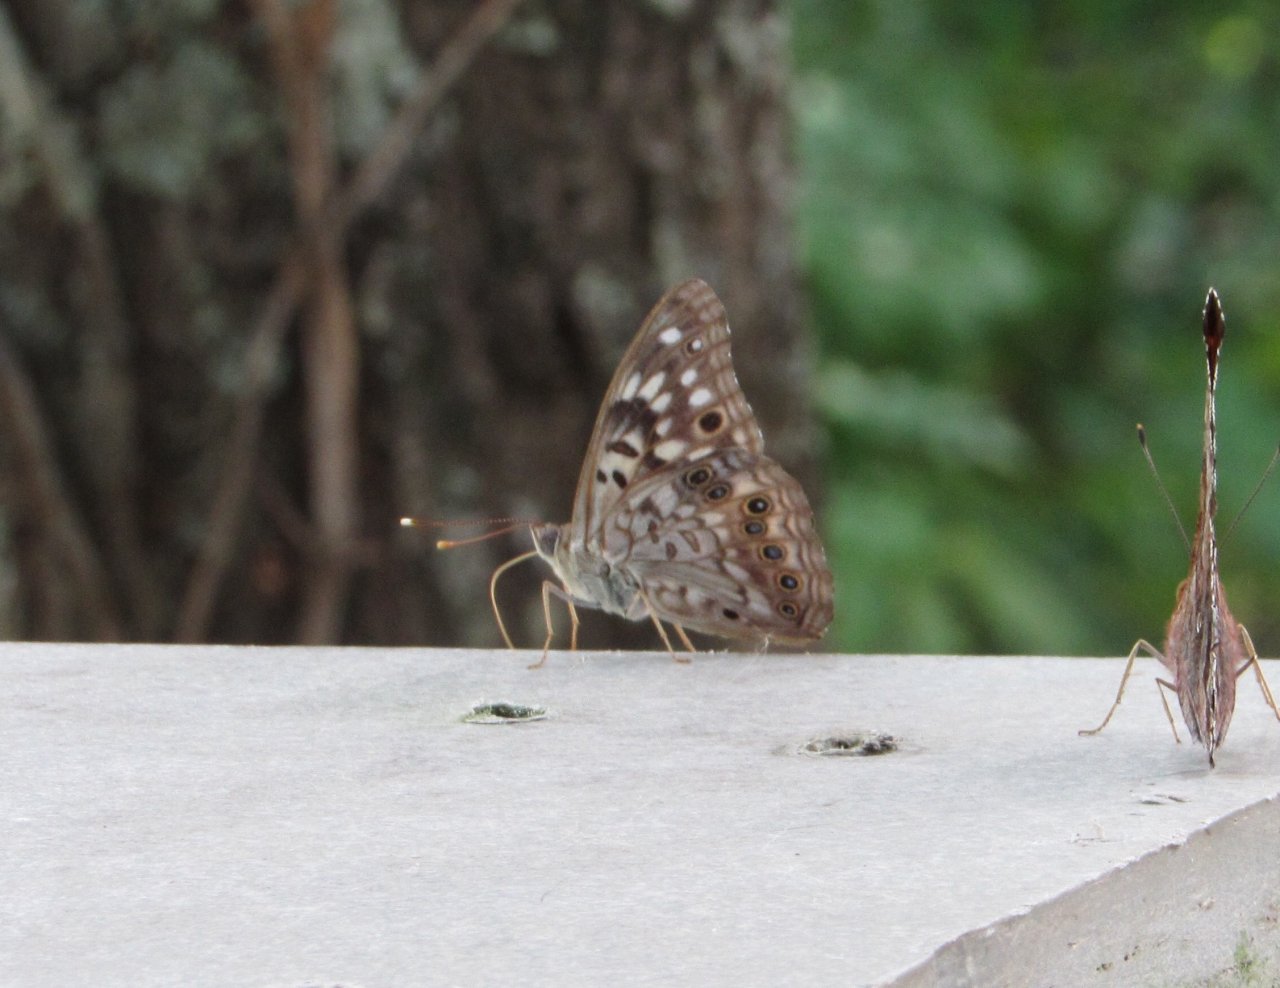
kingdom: Animalia
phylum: Arthropoda
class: Insecta
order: Lepidoptera
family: Nymphalidae
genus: Asterocampa
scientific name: Asterocampa celtis
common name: Hackberry Emperor
